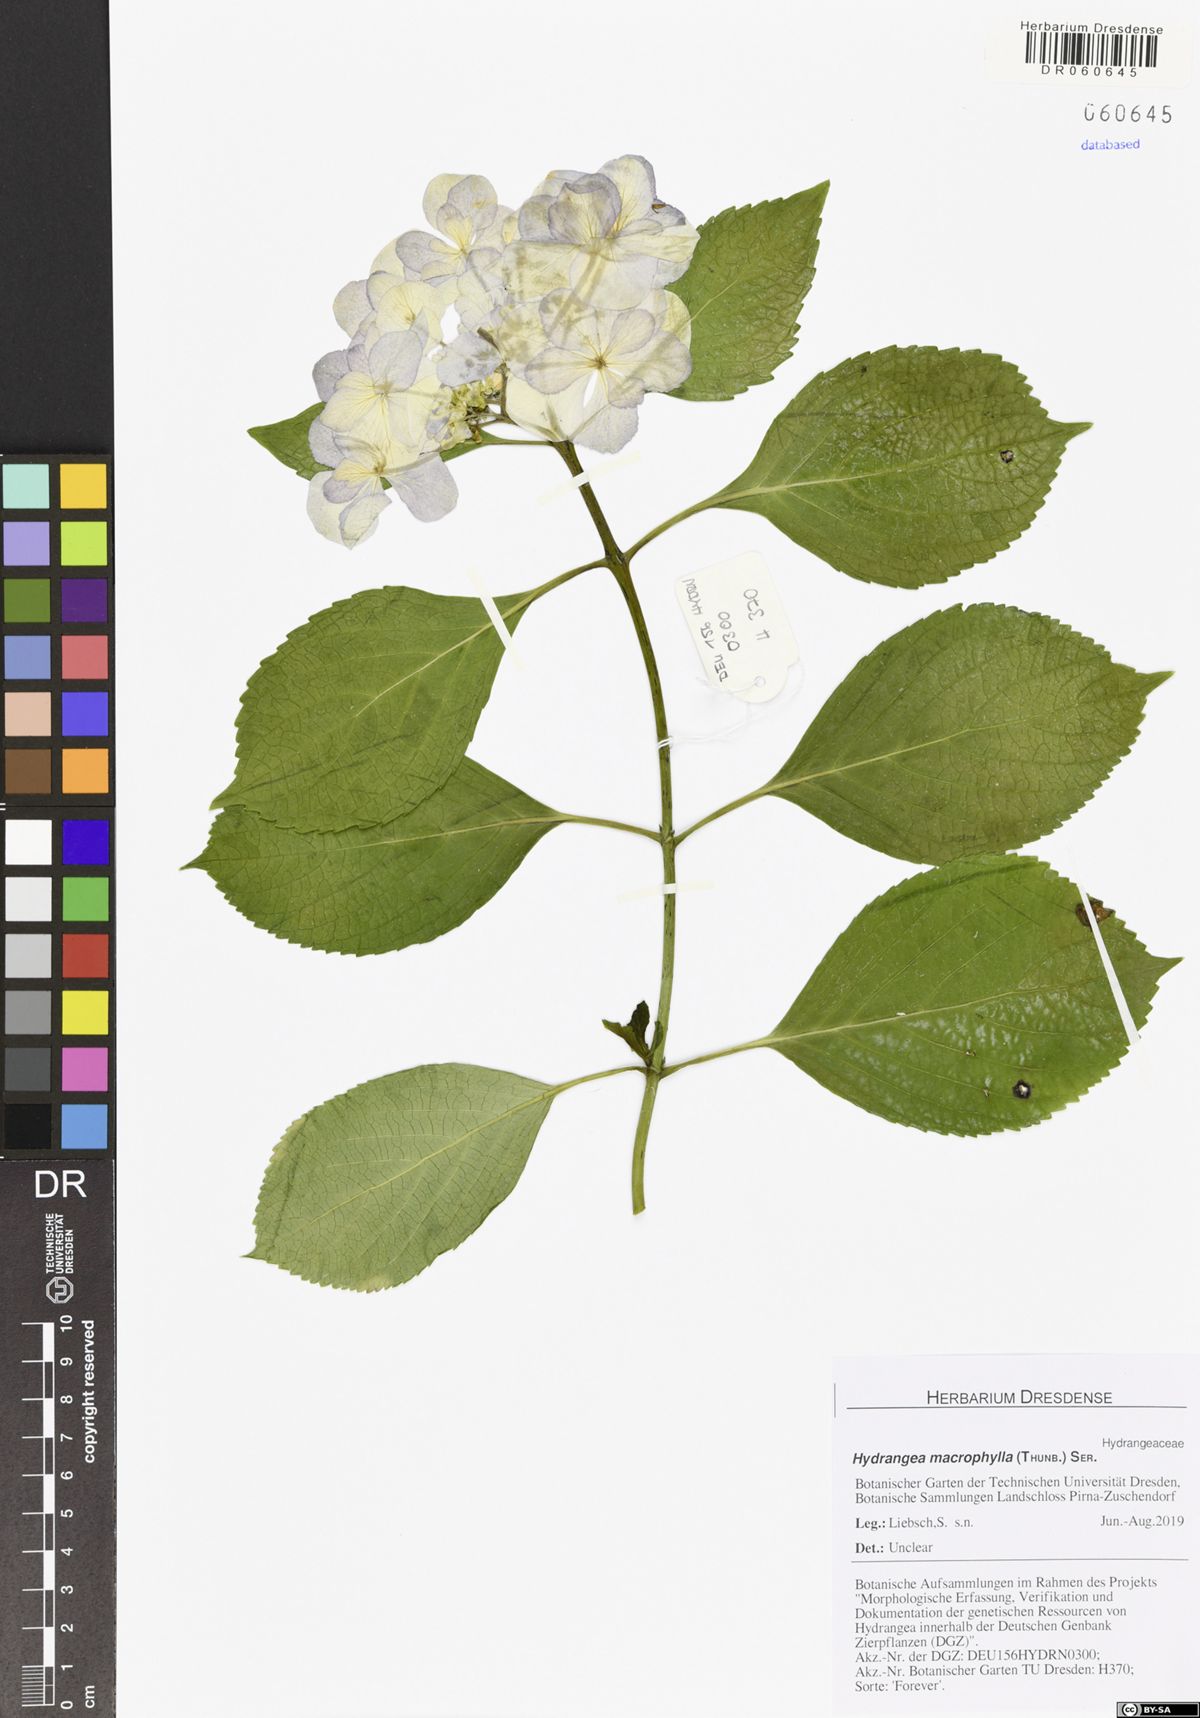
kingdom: Plantae
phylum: Tracheophyta
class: Magnoliopsida
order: Cornales
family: Hydrangeaceae
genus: Hydrangea
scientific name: Hydrangea macrophylla
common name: Hydrangea
